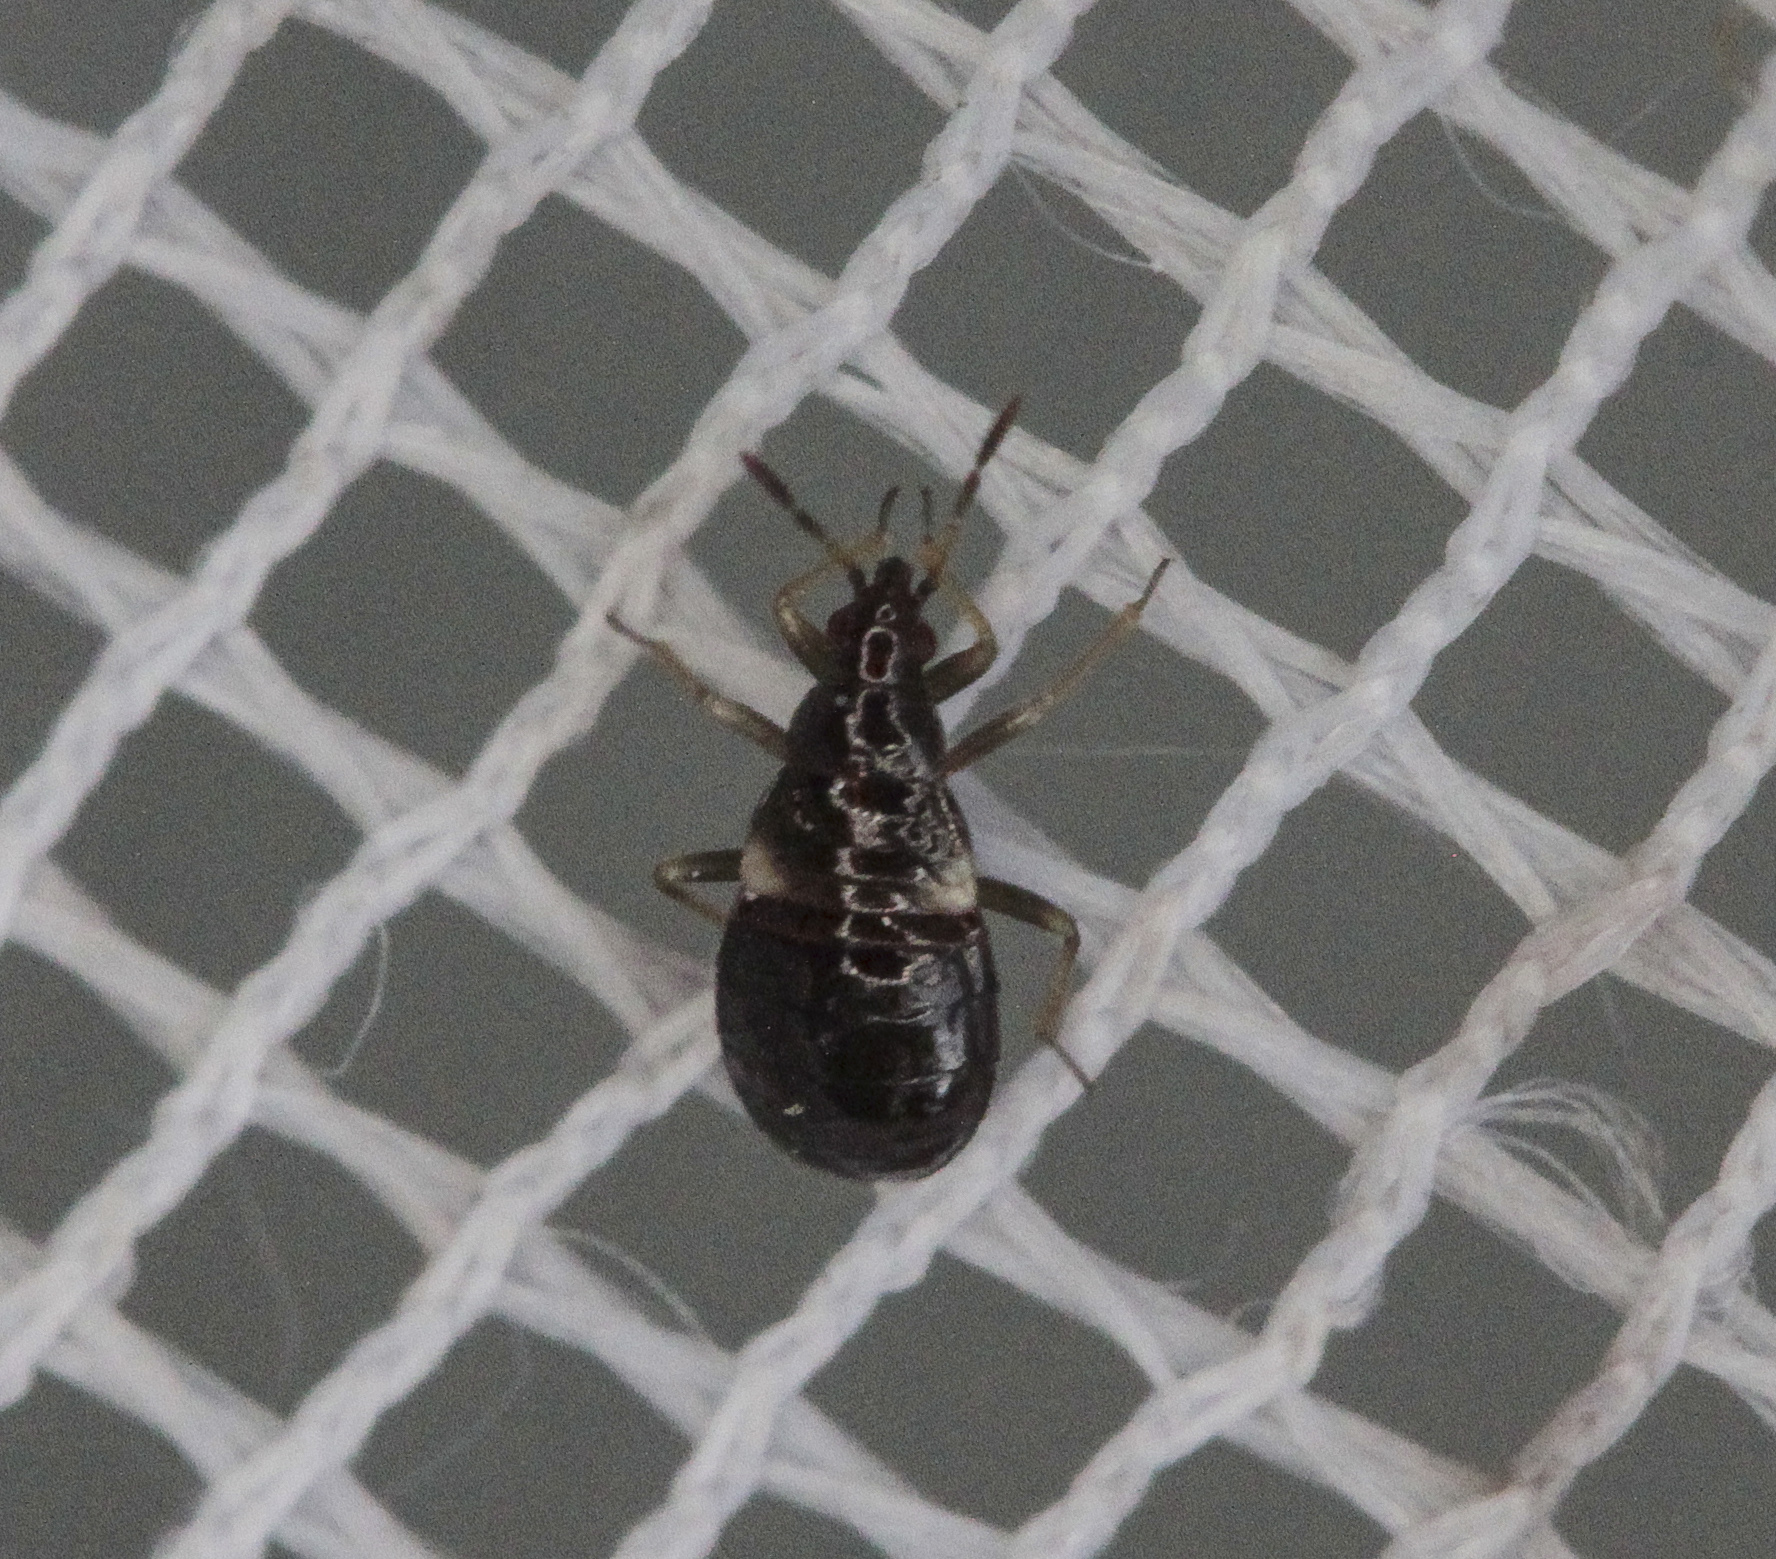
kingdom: Animalia
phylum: Arthropoda
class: Insecta
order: Hemiptera
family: Anthocoridae
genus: Anthocoris
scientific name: Anthocoris
